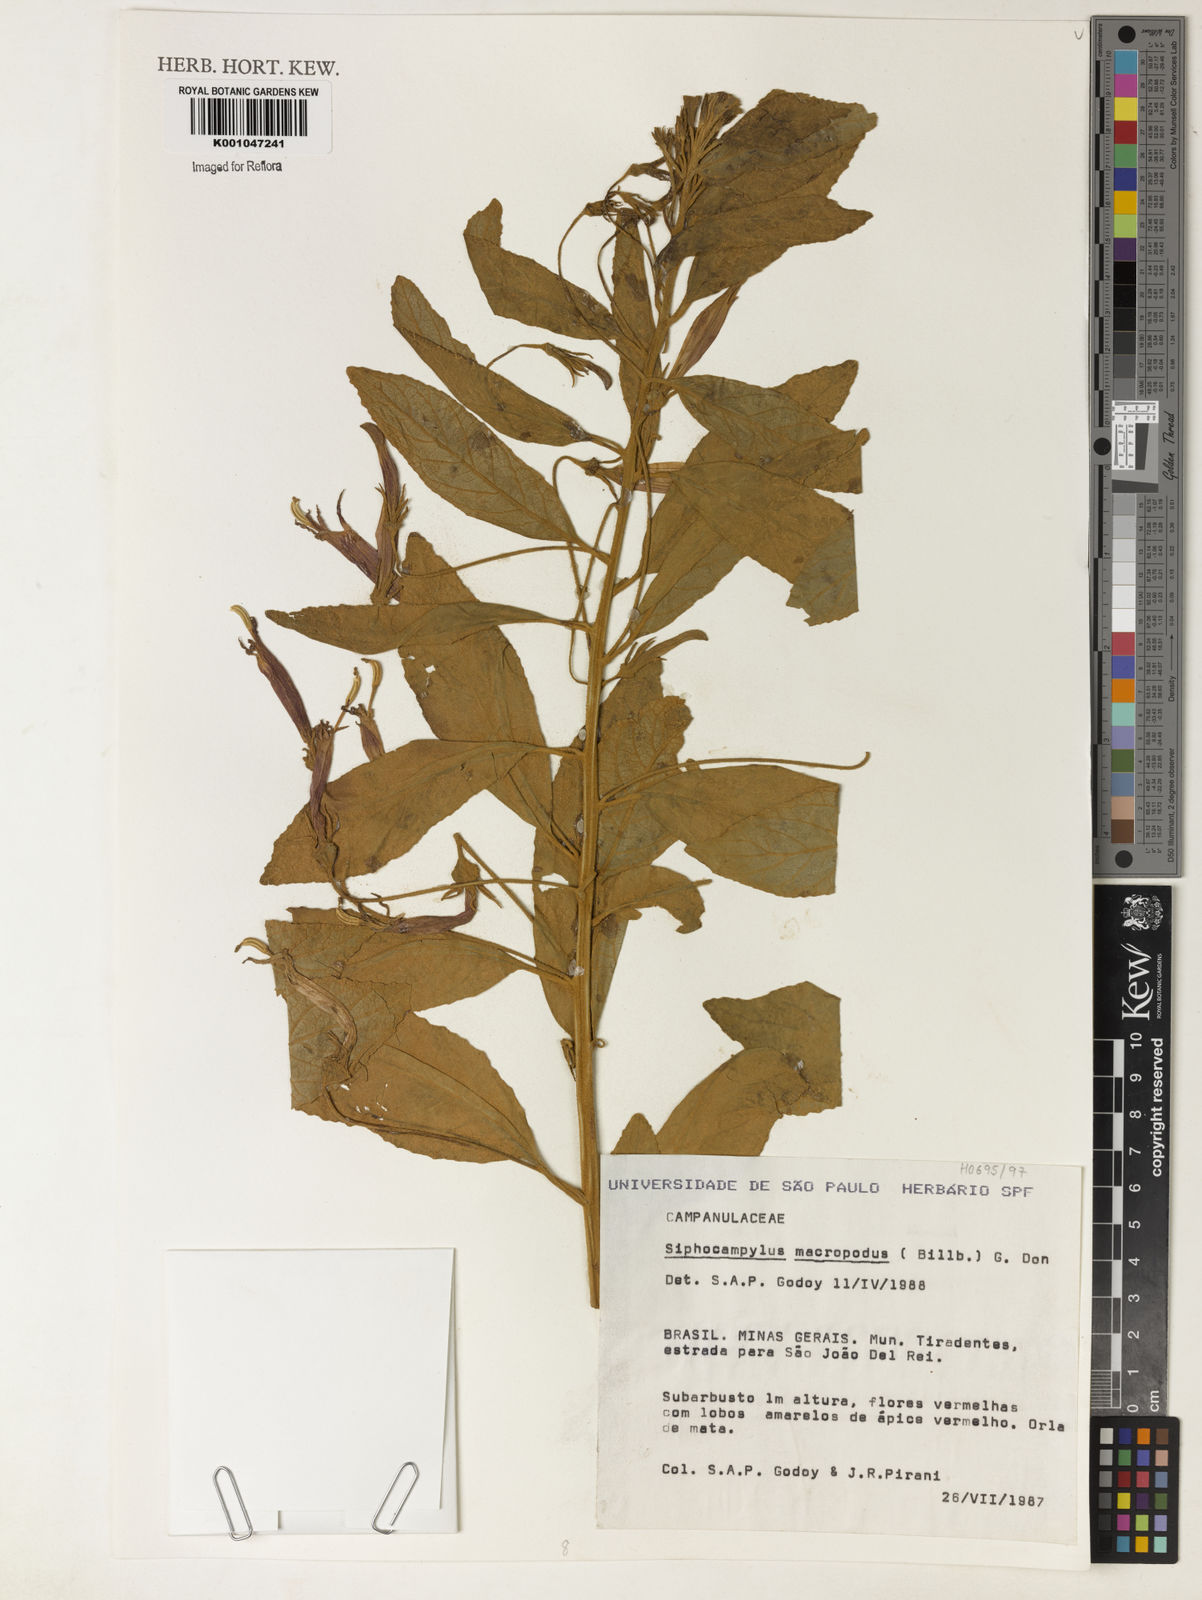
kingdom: Plantae
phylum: Tracheophyta
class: Magnoliopsida
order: Asterales
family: Campanulaceae
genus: Siphocampylus
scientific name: Siphocampylus macropodus
